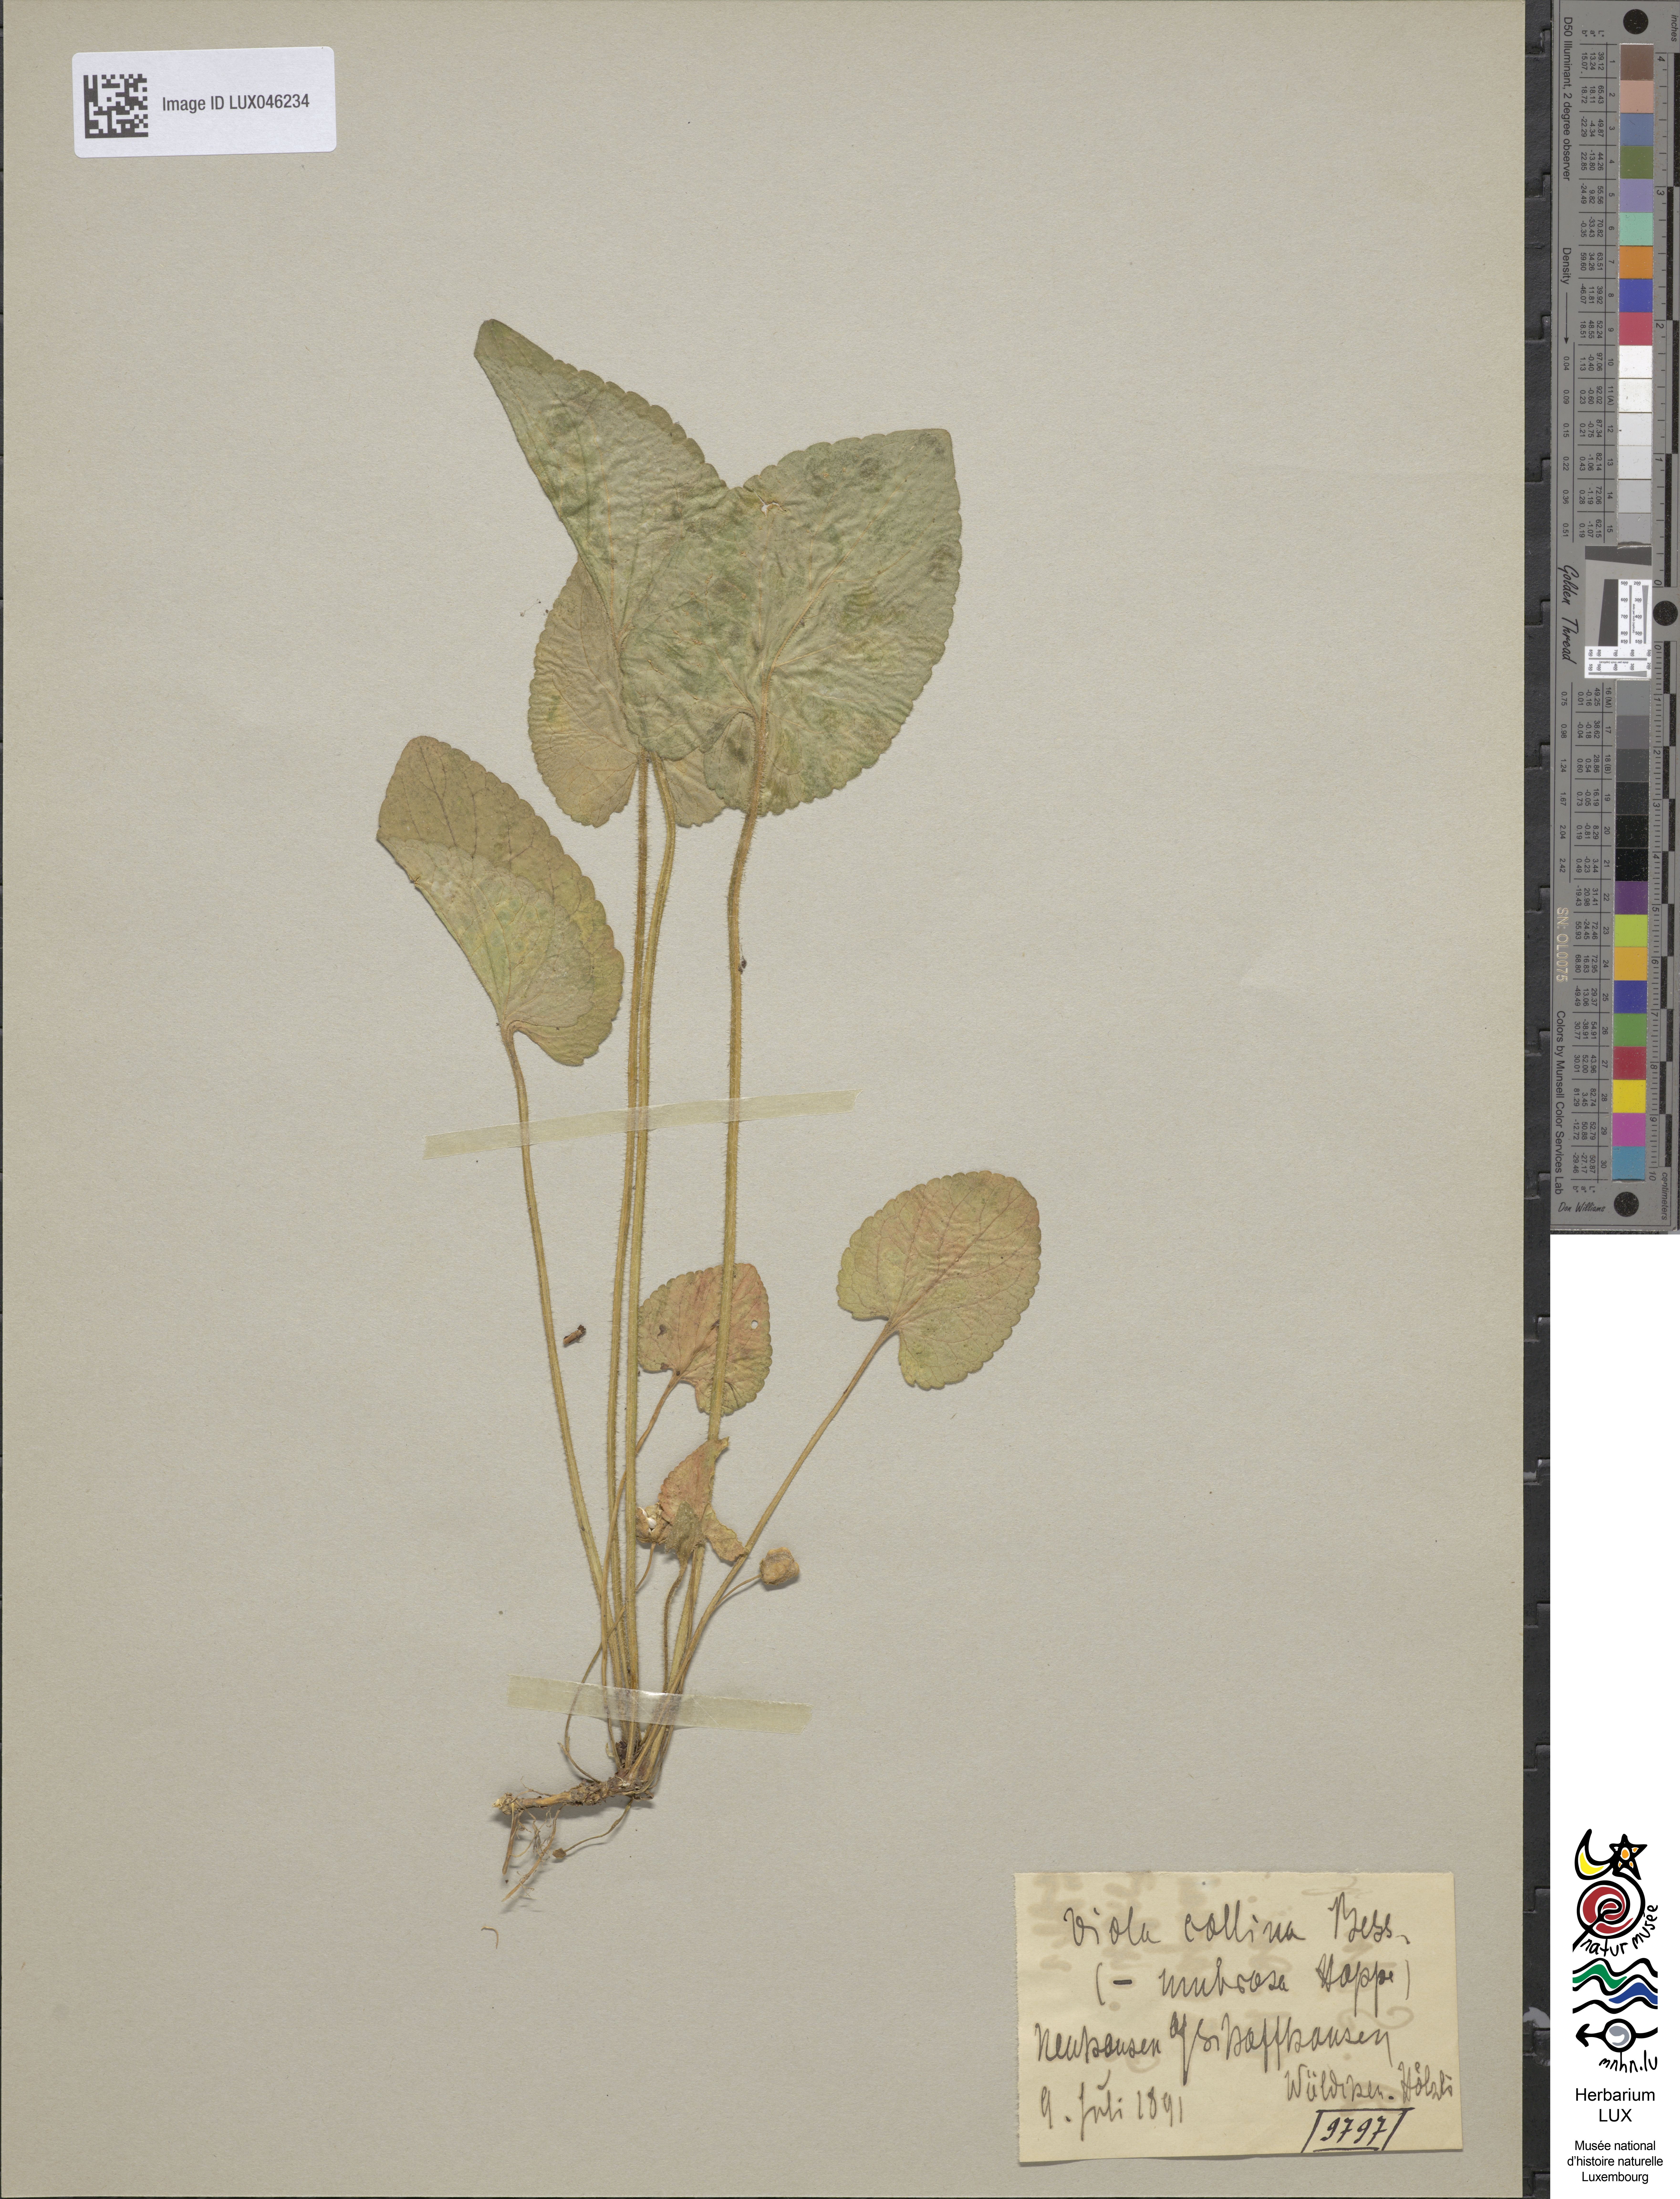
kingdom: Plantae
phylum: Tracheophyta
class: Magnoliopsida
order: Malpighiales
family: Violaceae
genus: Viola
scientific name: Viola collina
